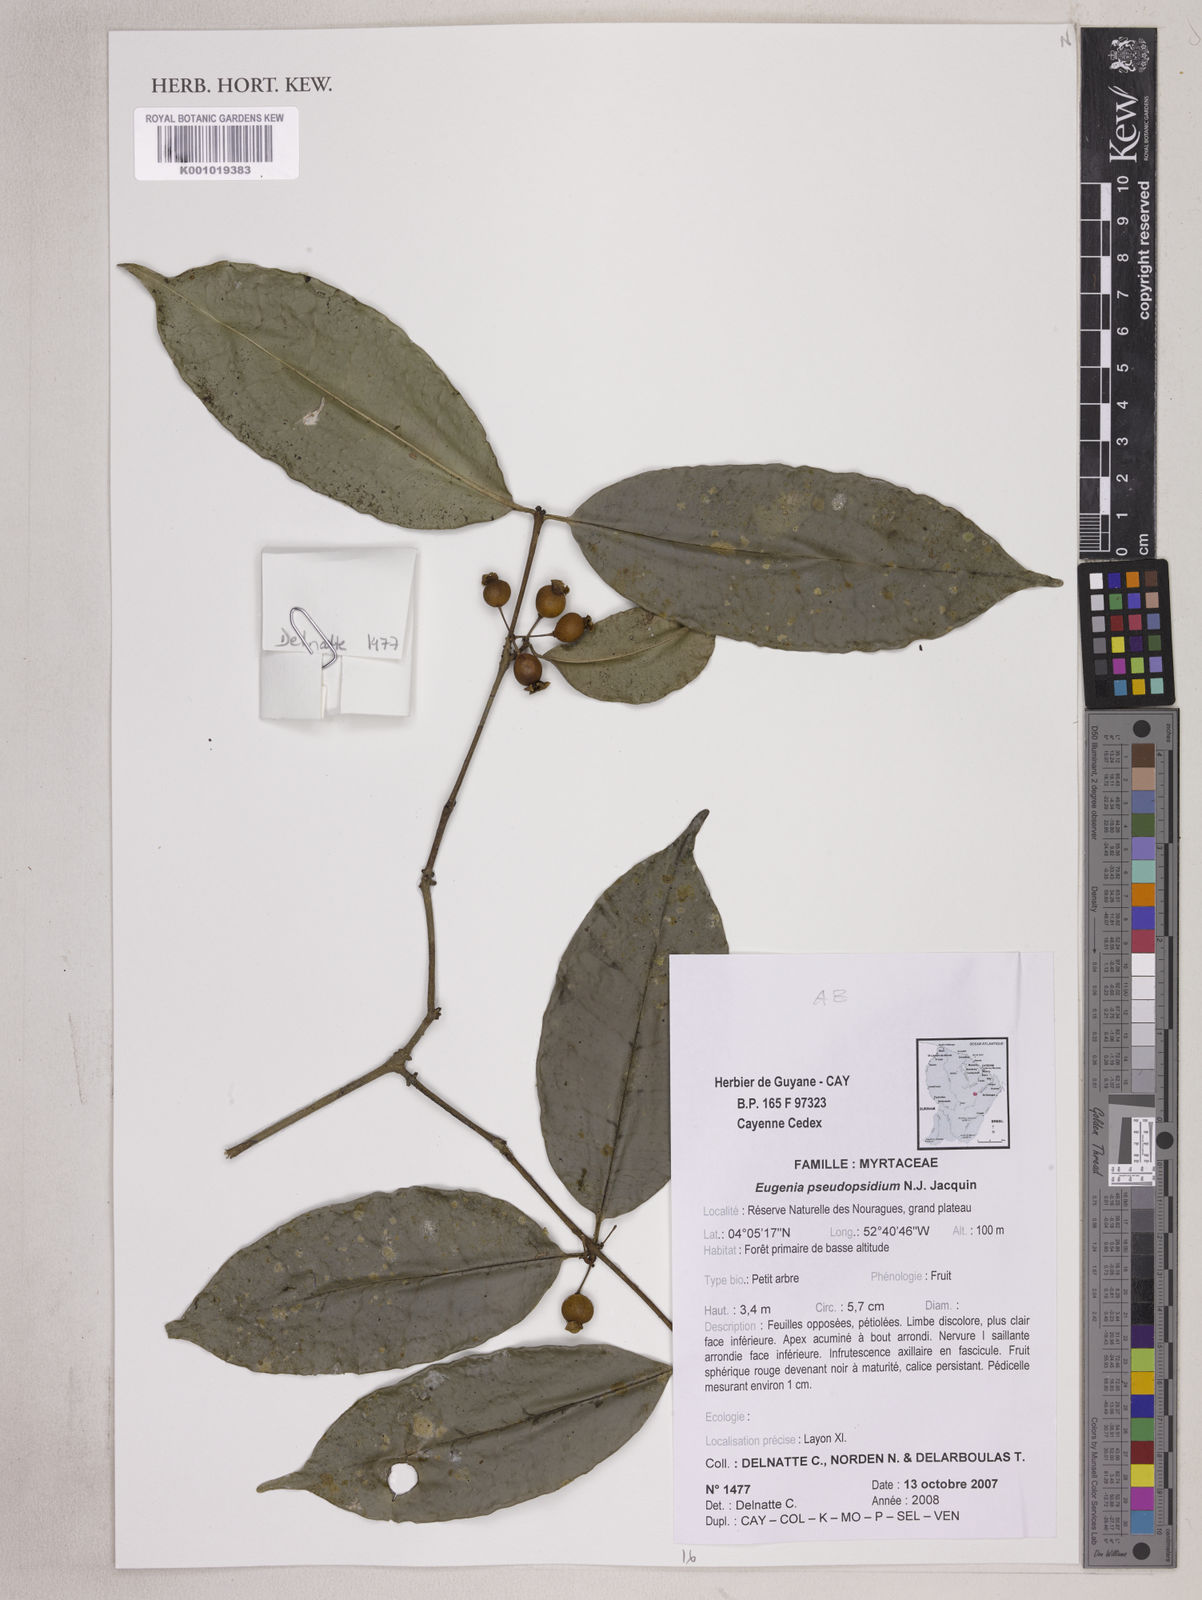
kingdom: Plantae
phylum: Tracheophyta
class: Magnoliopsida
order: Myrtales
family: Myrtaceae
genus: Eugenia
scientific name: Eugenia pseudopsidium
